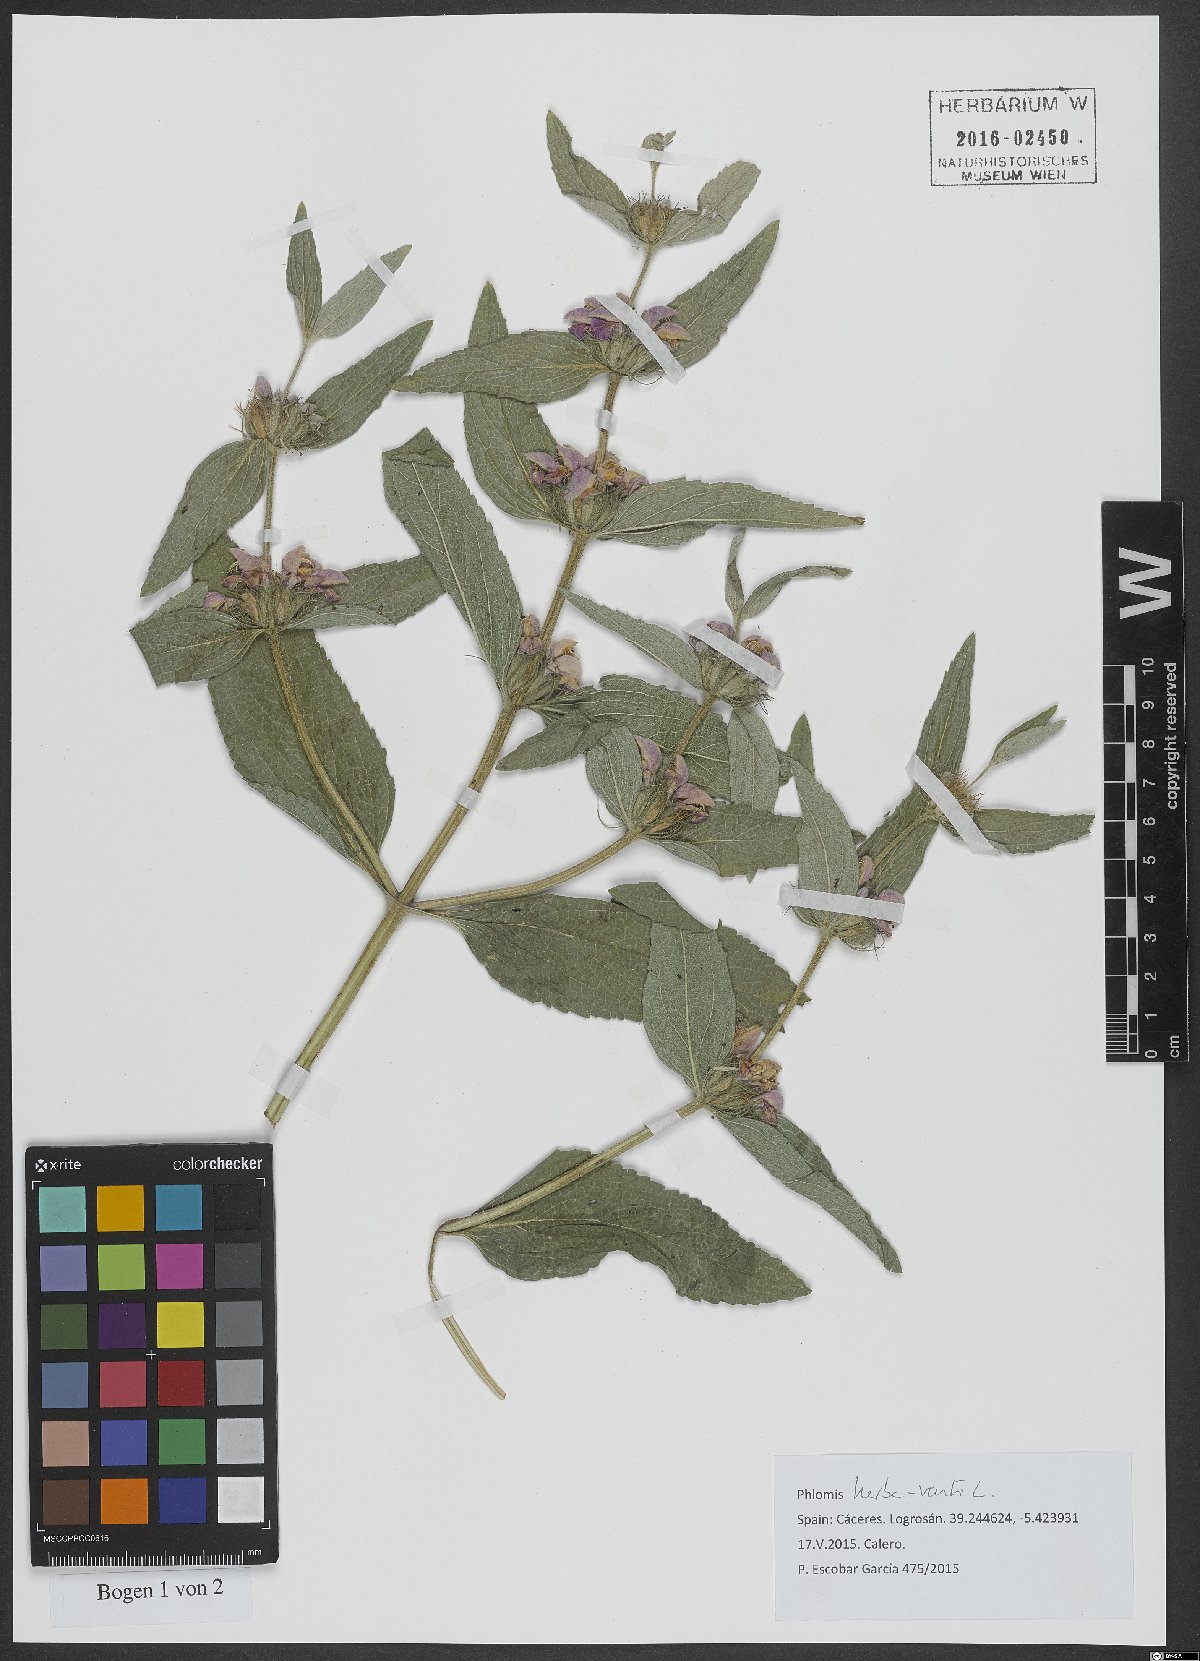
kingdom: Plantae
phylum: Tracheophyta
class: Magnoliopsida
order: Lamiales
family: Lamiaceae
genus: Phlomis
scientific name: Phlomis herba-venti
